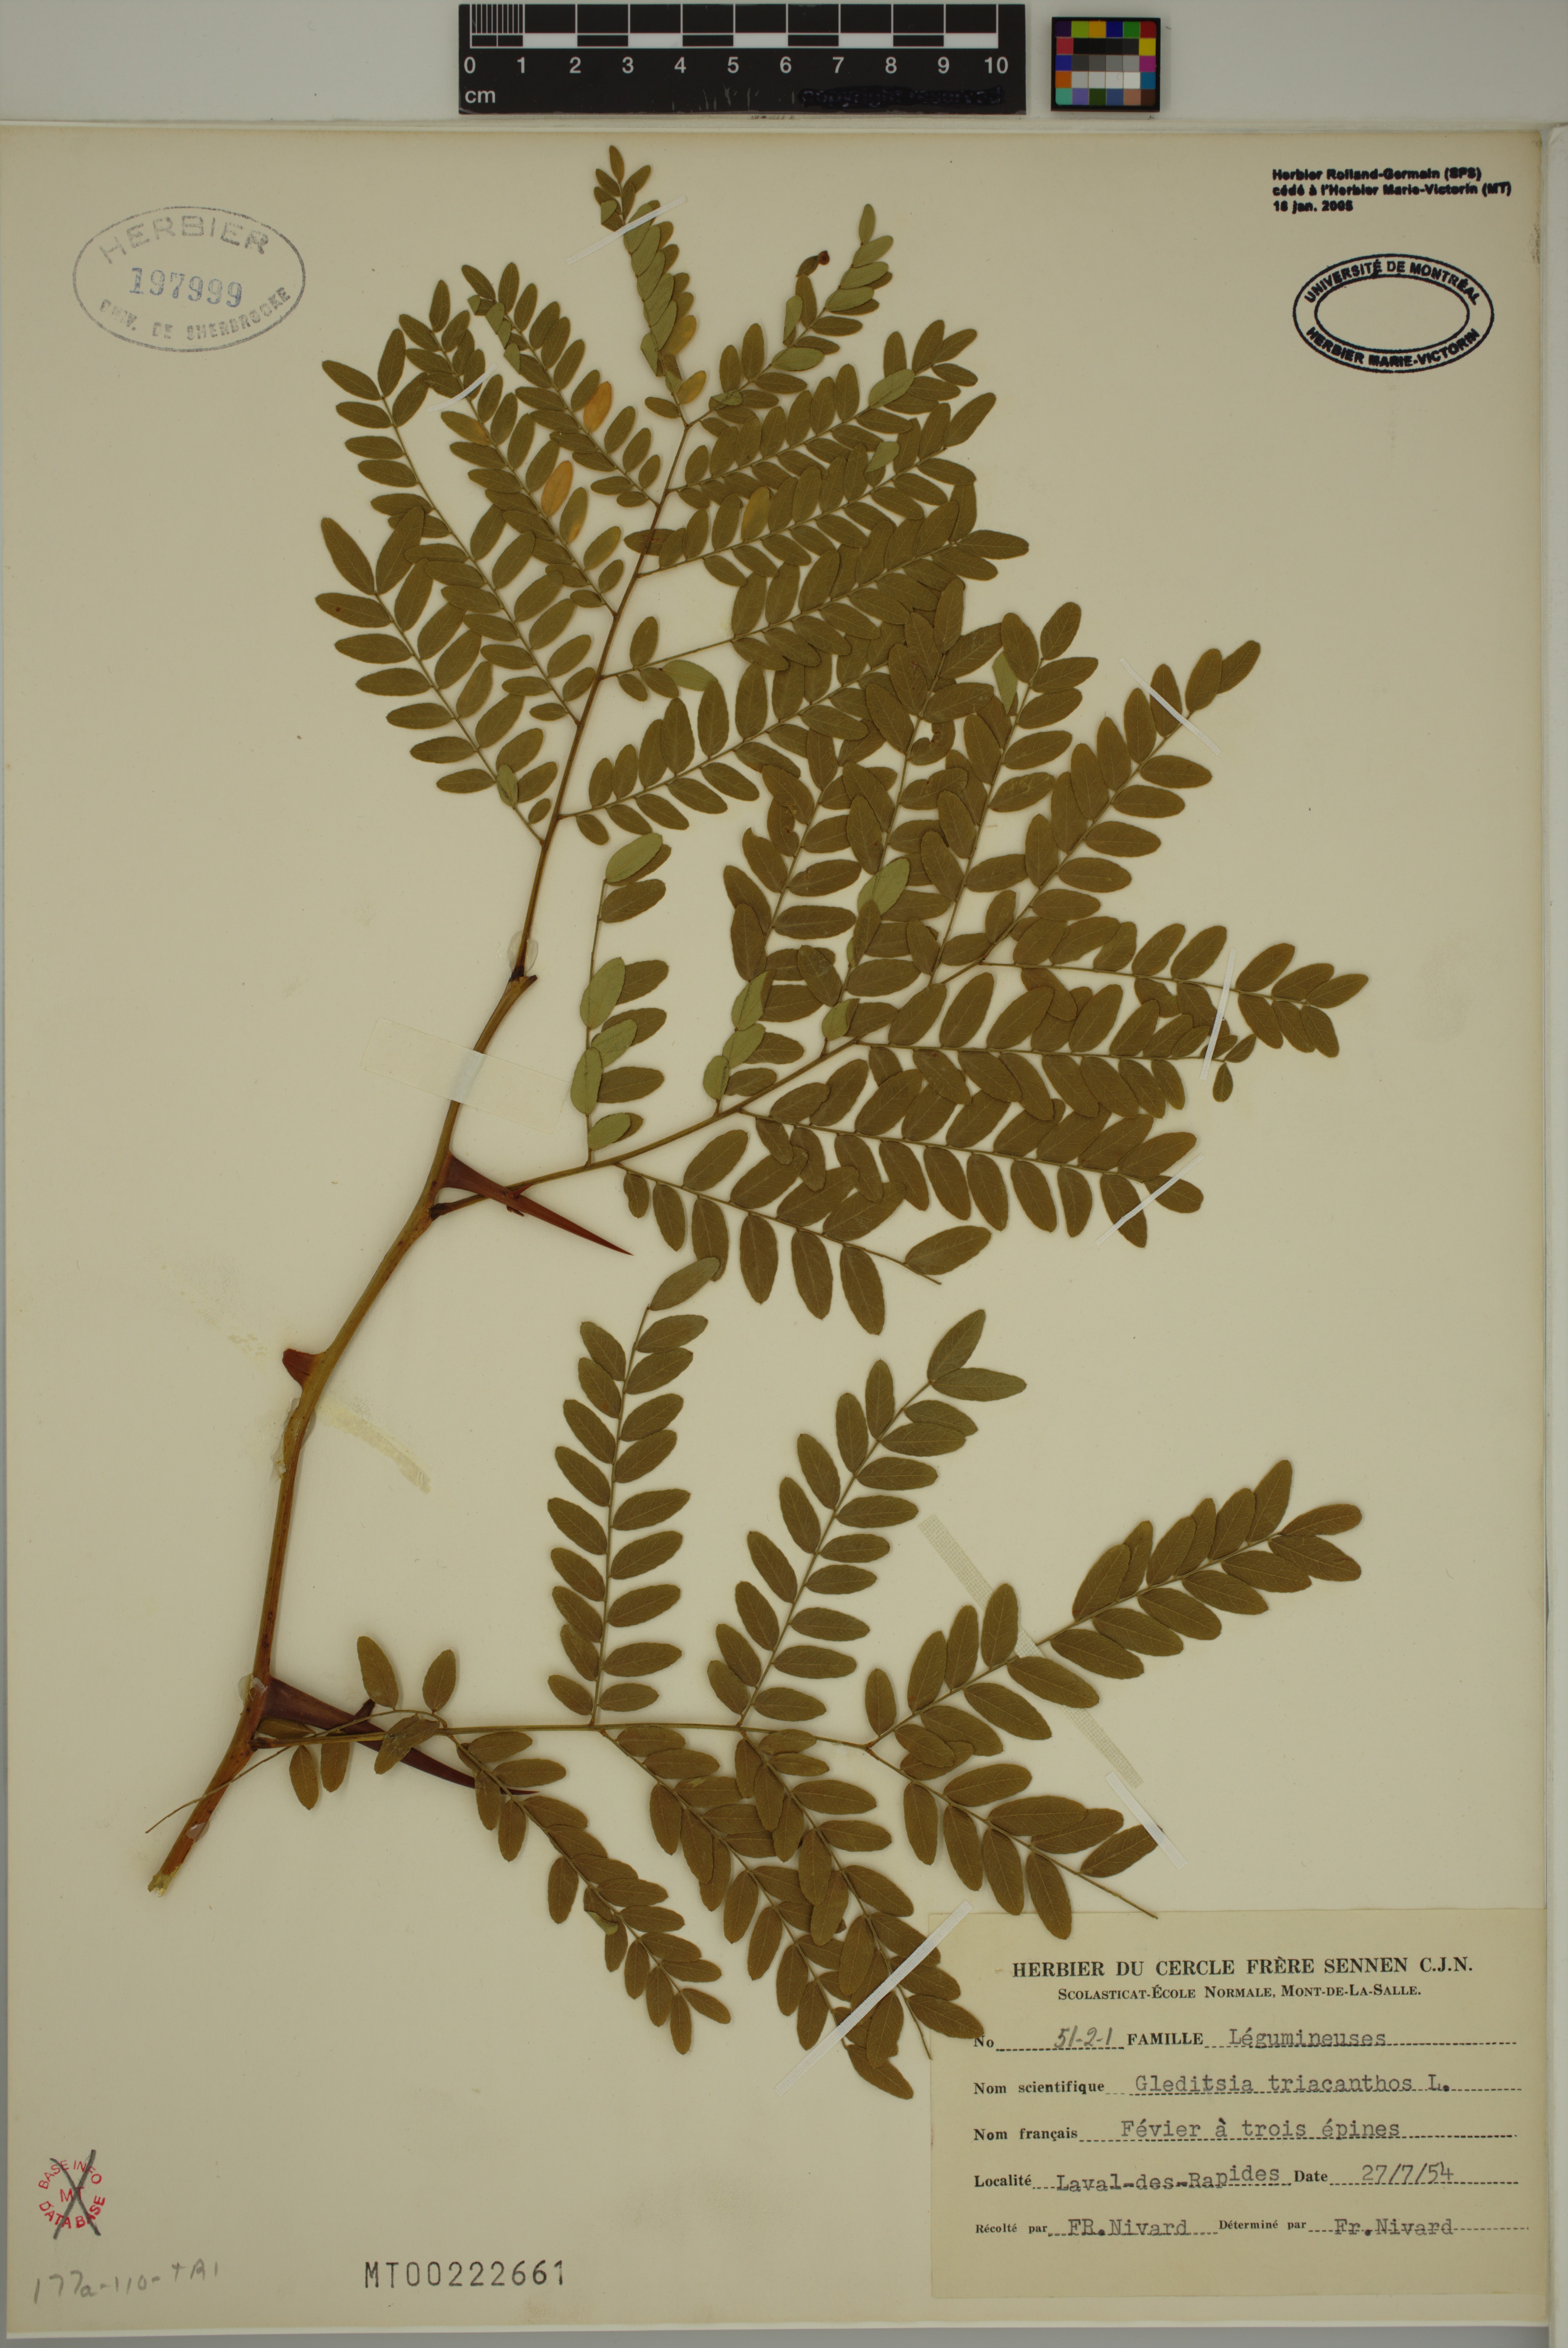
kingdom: Plantae
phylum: Tracheophyta
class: Magnoliopsida
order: Fabales
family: Fabaceae
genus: Gleditsia
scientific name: Gleditsia triacanthos
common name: Common honeylocust
